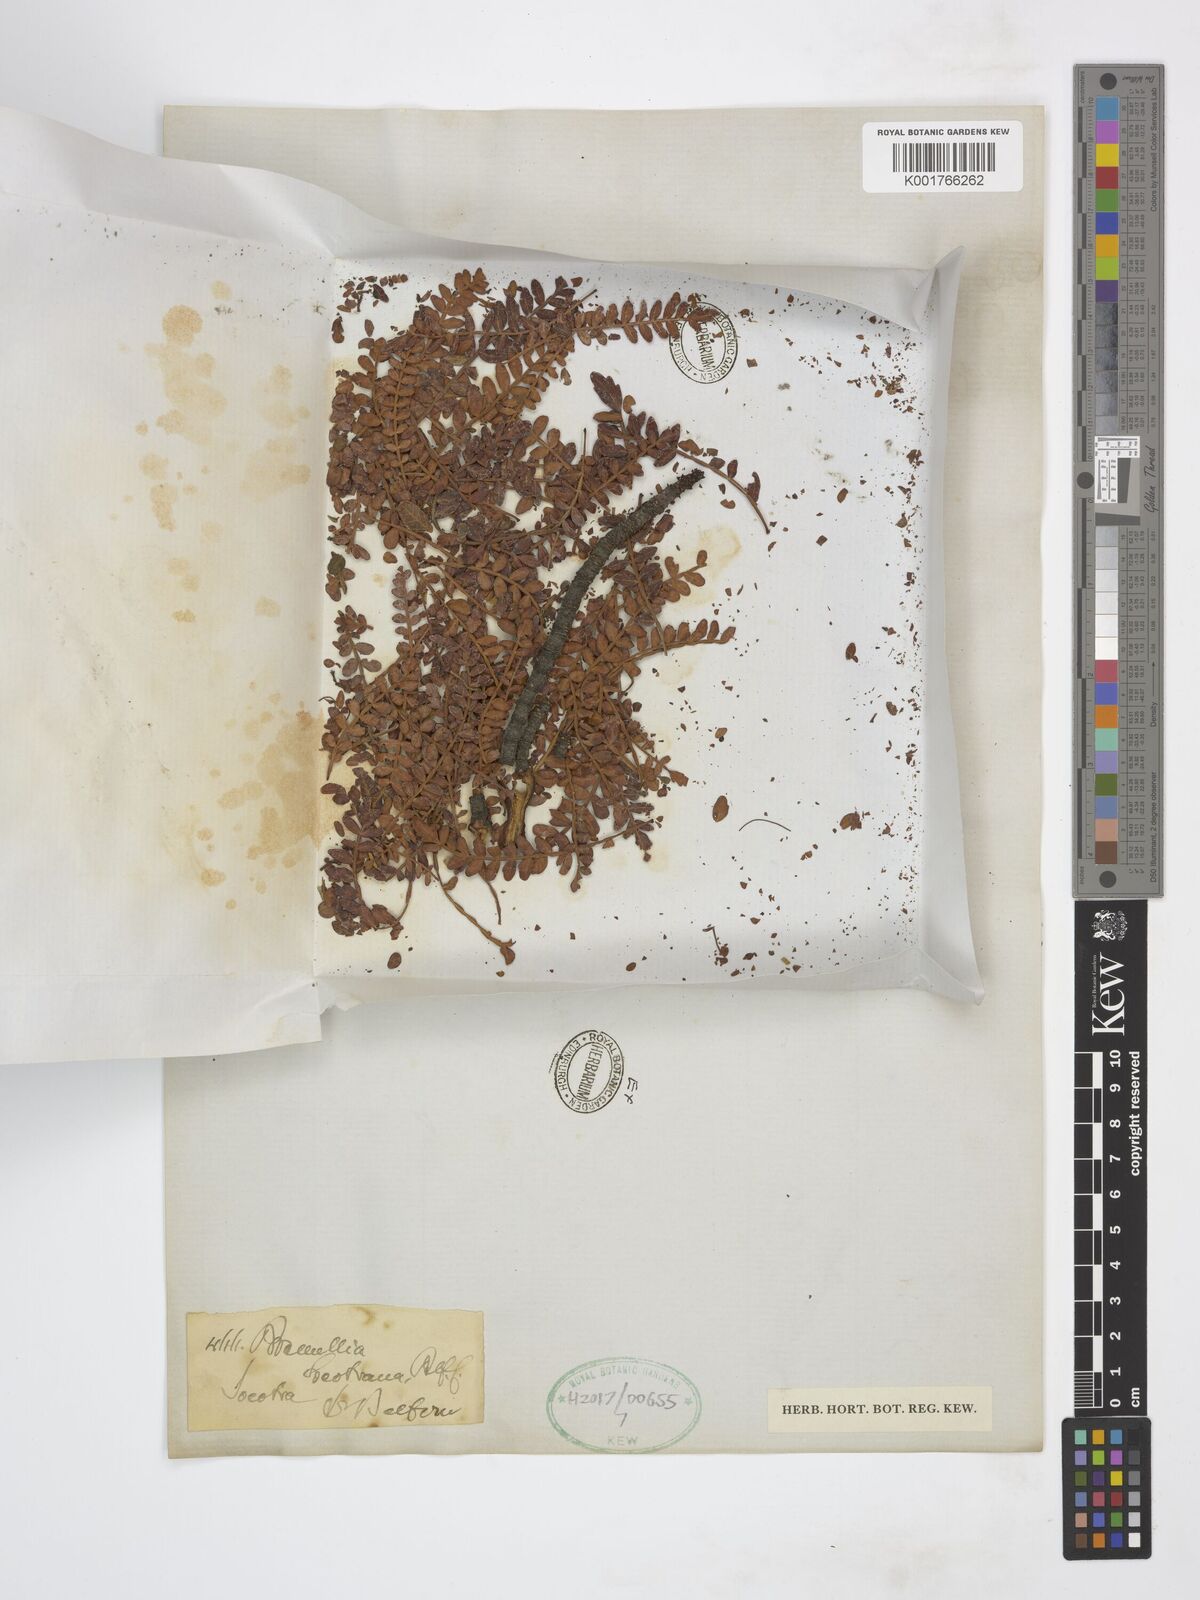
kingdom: Plantae
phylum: Tracheophyta
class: Magnoliopsida
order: Sapindales
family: Burseraceae
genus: Boswellia
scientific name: Boswellia
